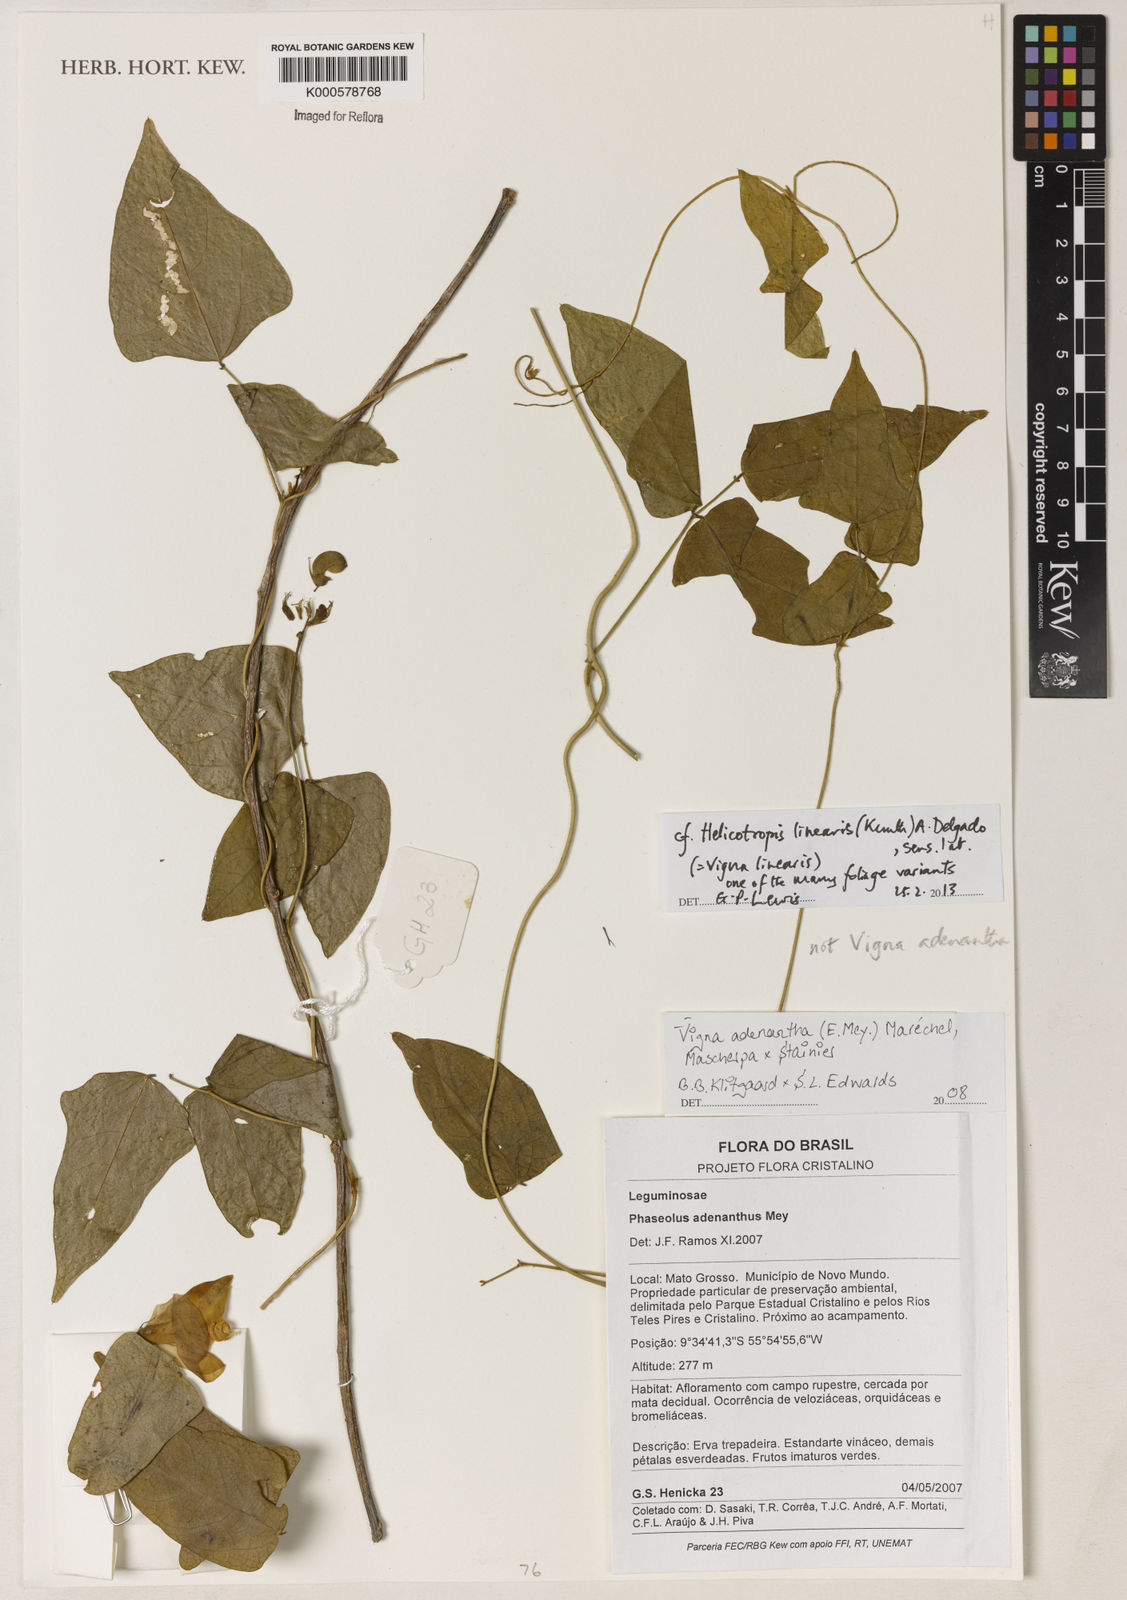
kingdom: Plantae
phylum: Tracheophyta
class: Magnoliopsida
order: Fabales
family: Fabaceae
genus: Vigna
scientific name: Vigna
